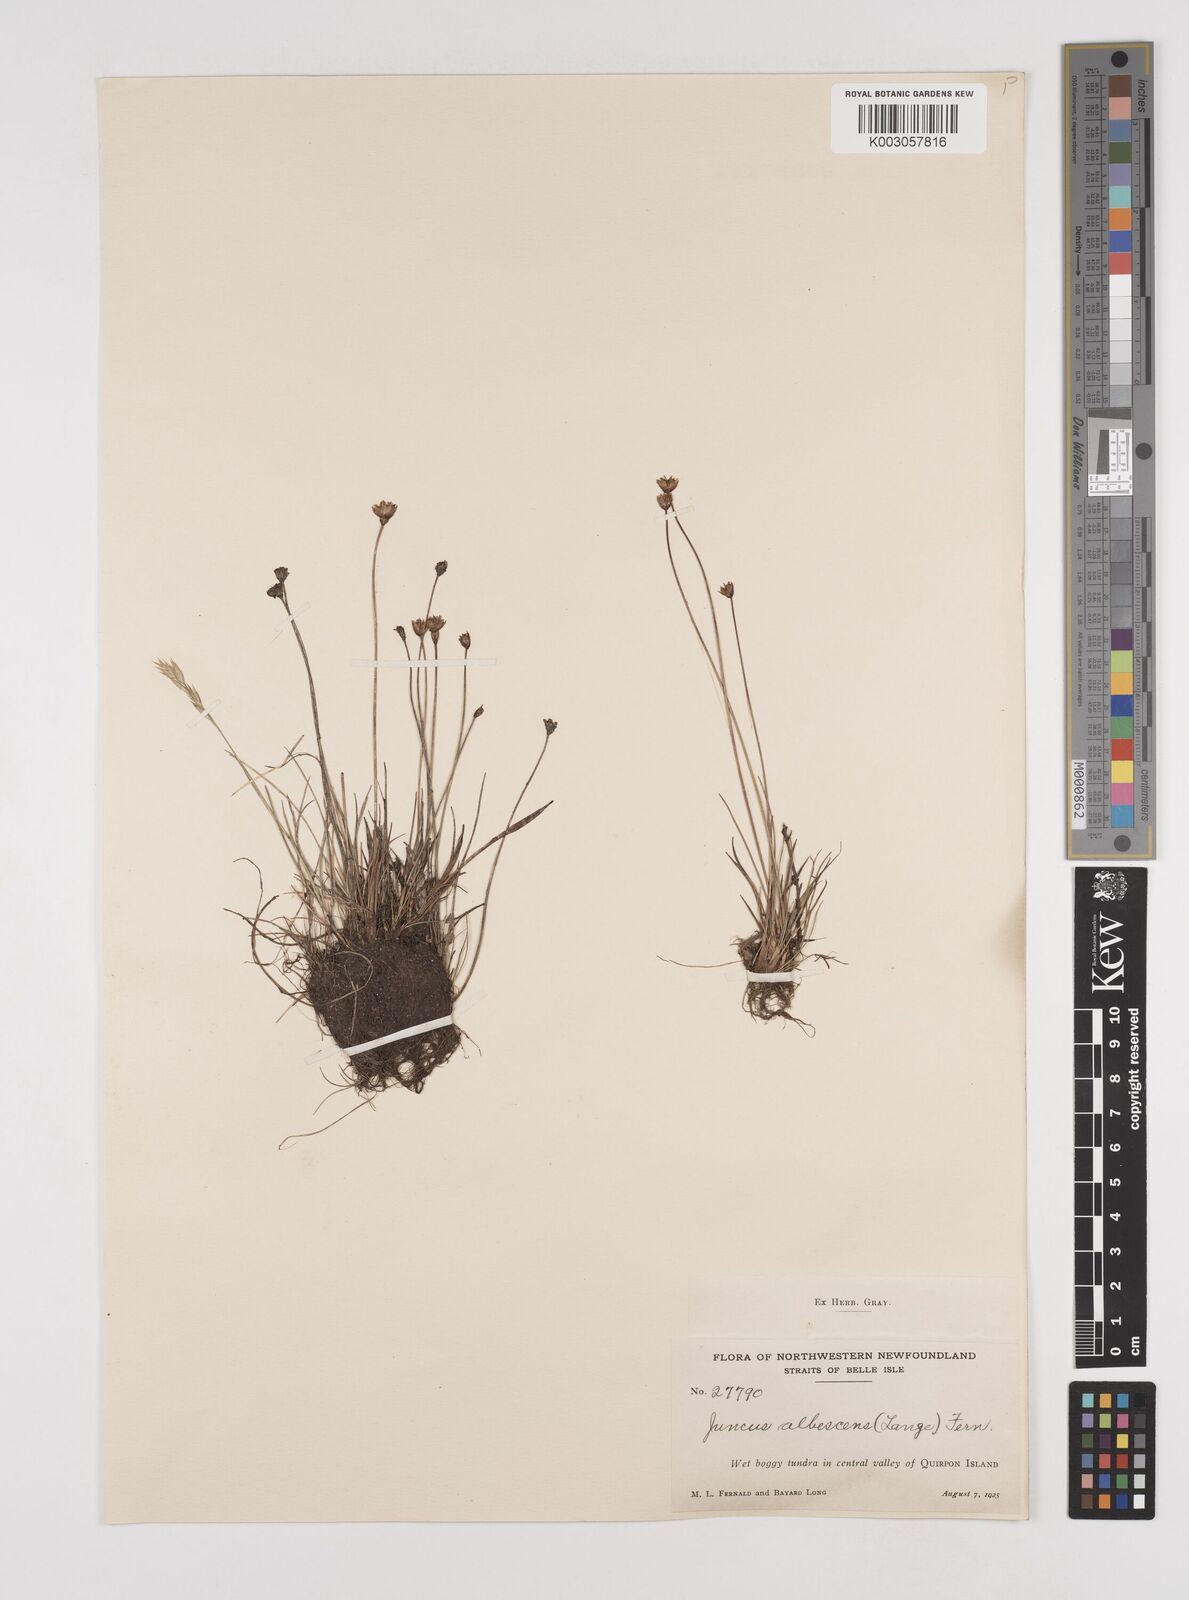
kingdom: Plantae
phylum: Tracheophyta
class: Liliopsida
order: Poales
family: Juncaceae
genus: Juncus
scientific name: Juncus albescens
